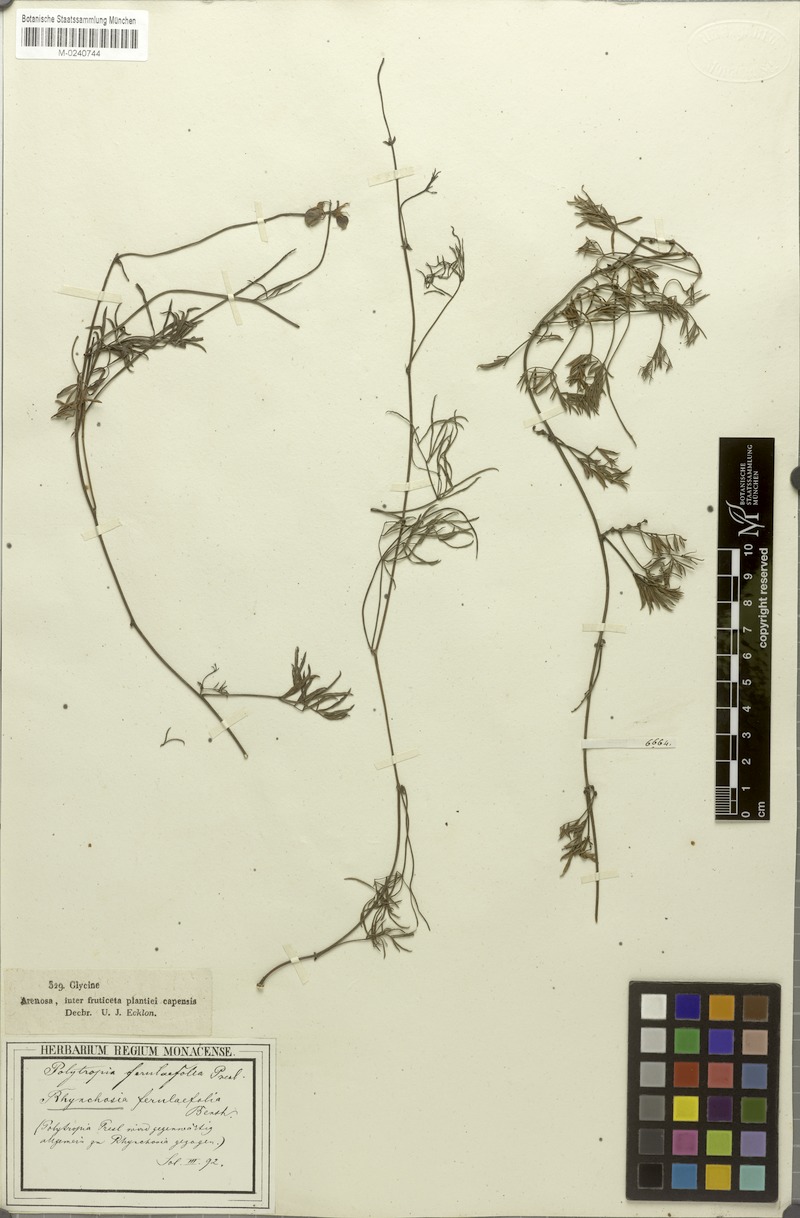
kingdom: Plantae
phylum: Tracheophyta
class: Magnoliopsida
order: Fabales
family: Fabaceae
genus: Rhynchosia
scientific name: Rhynchosia ferulifolia
